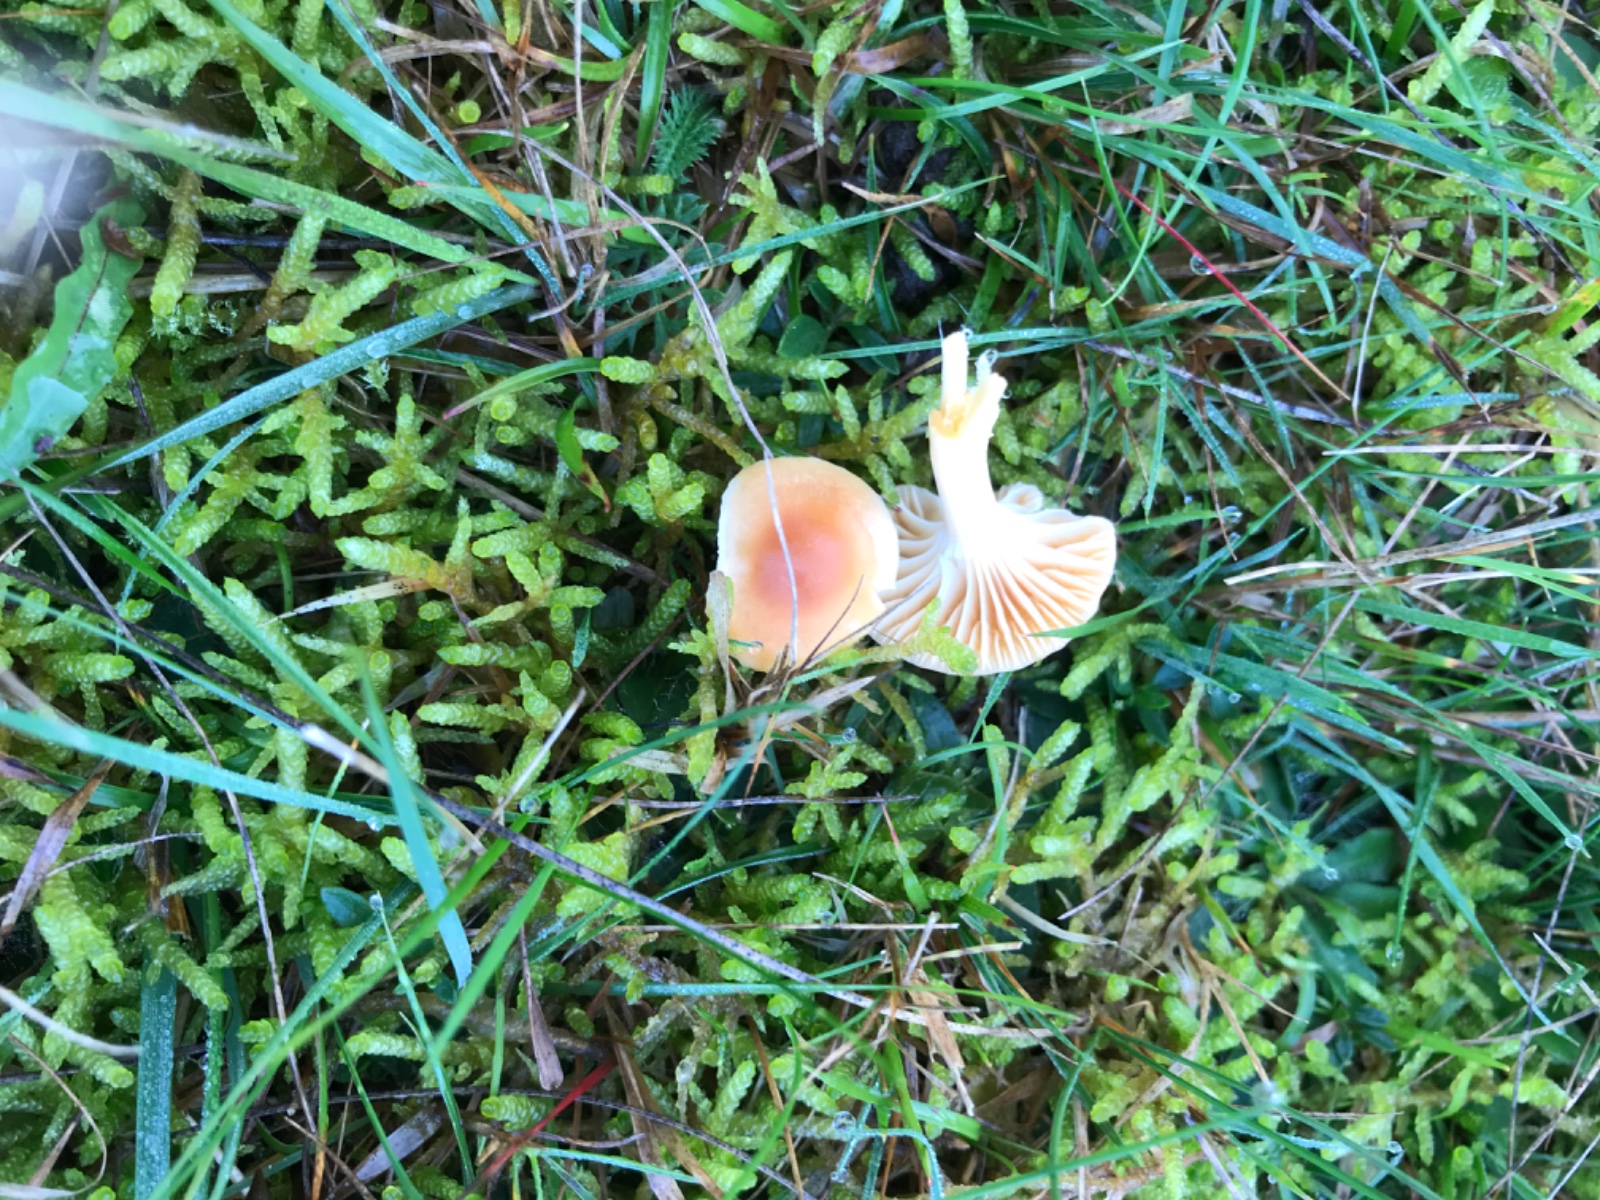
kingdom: Fungi
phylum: Basidiomycota
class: Agaricomycetes
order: Agaricales
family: Hygrophoraceae
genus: Cuphophyllus
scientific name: Cuphophyllus pratensis
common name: eng-vokshat
